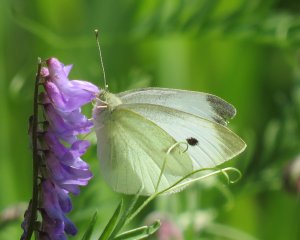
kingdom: Animalia
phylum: Arthropoda
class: Insecta
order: Lepidoptera
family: Pieridae
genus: Pieris
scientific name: Pieris rapae
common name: Cabbage White
